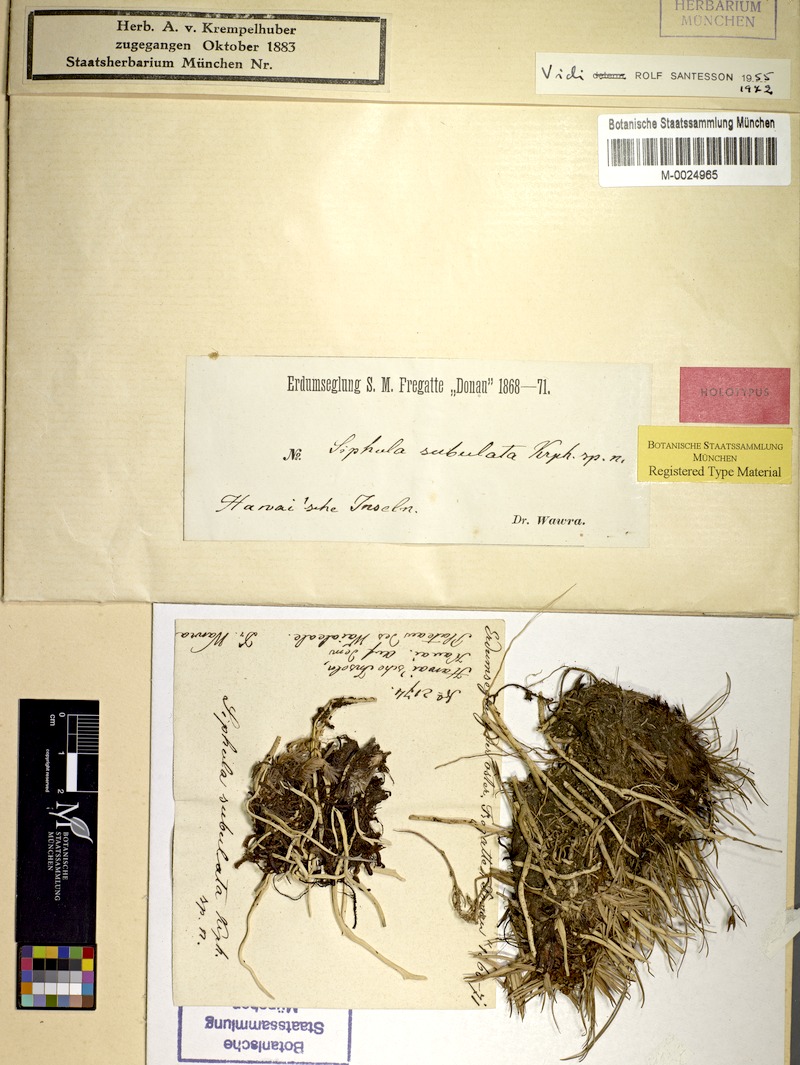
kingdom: Fungi
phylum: Ascomycota
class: Lecanoromycetes
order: Pertusariales
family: Icmadophilaceae
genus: Siphula
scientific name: Siphula subulata
